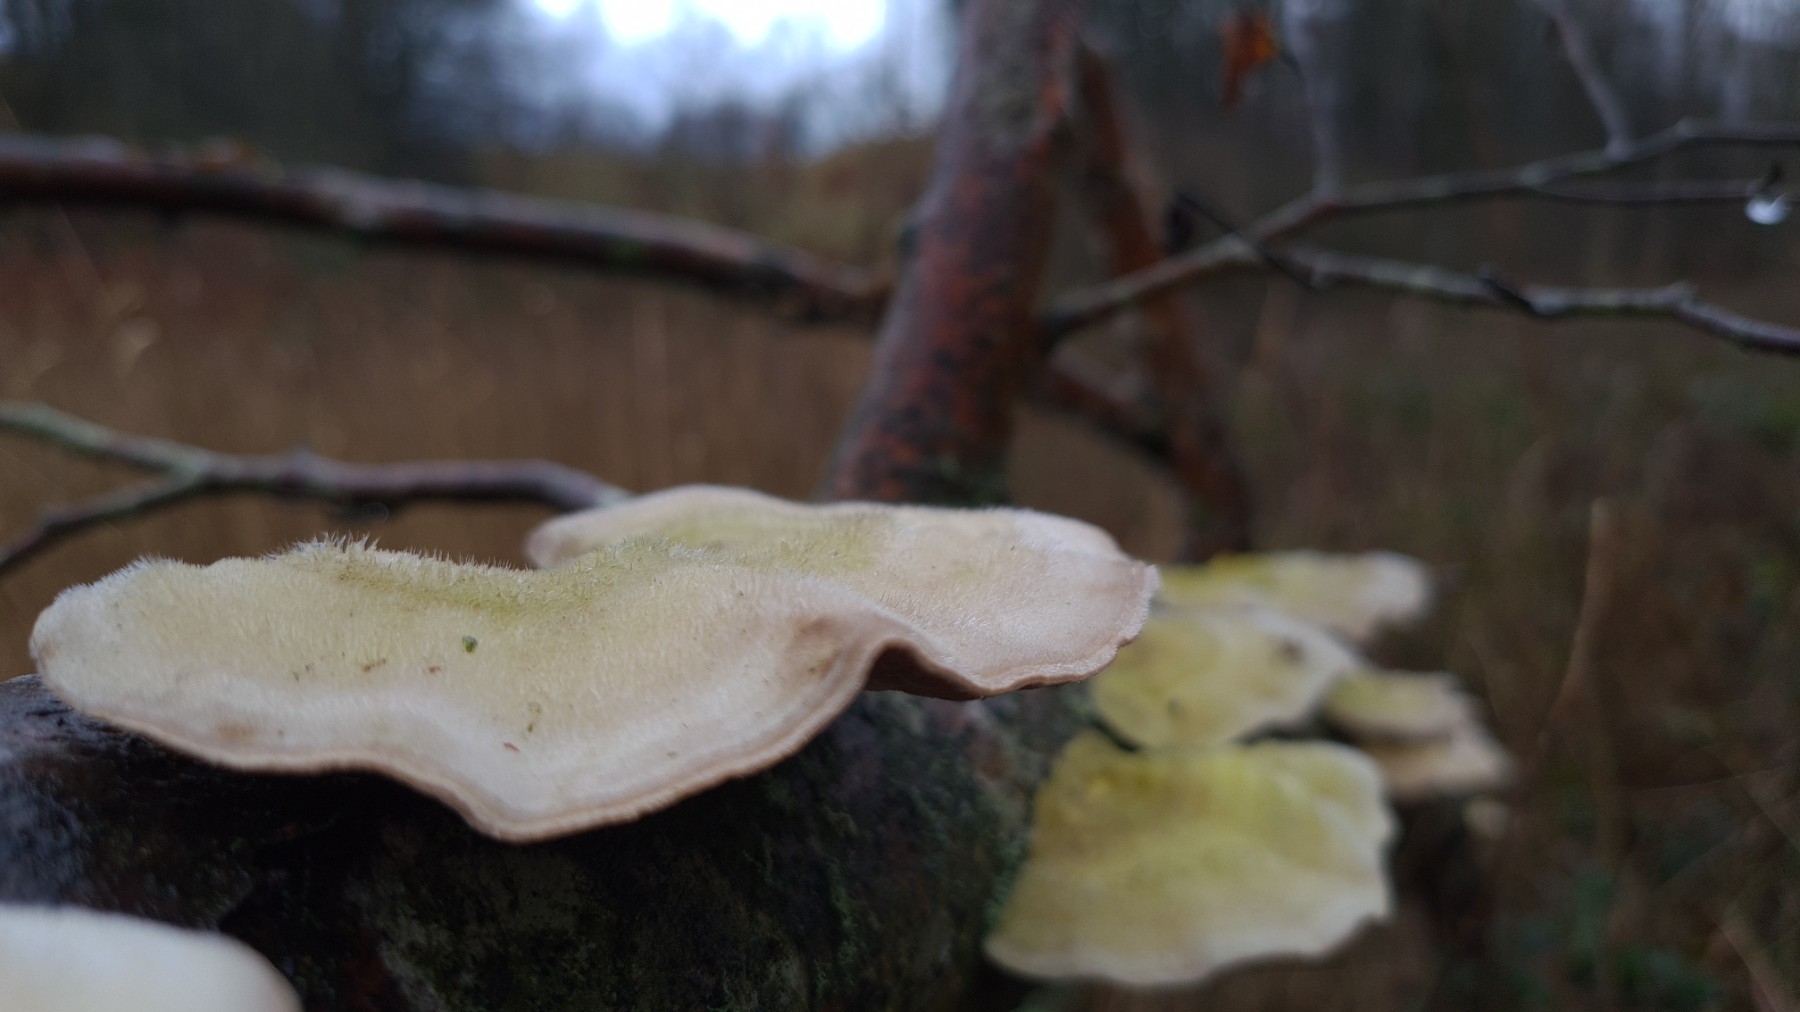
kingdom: Fungi
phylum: Basidiomycota
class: Agaricomycetes
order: Polyporales
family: Polyporaceae
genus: Trametes
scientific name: Trametes hirsuta
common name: håret læderporesvamp
